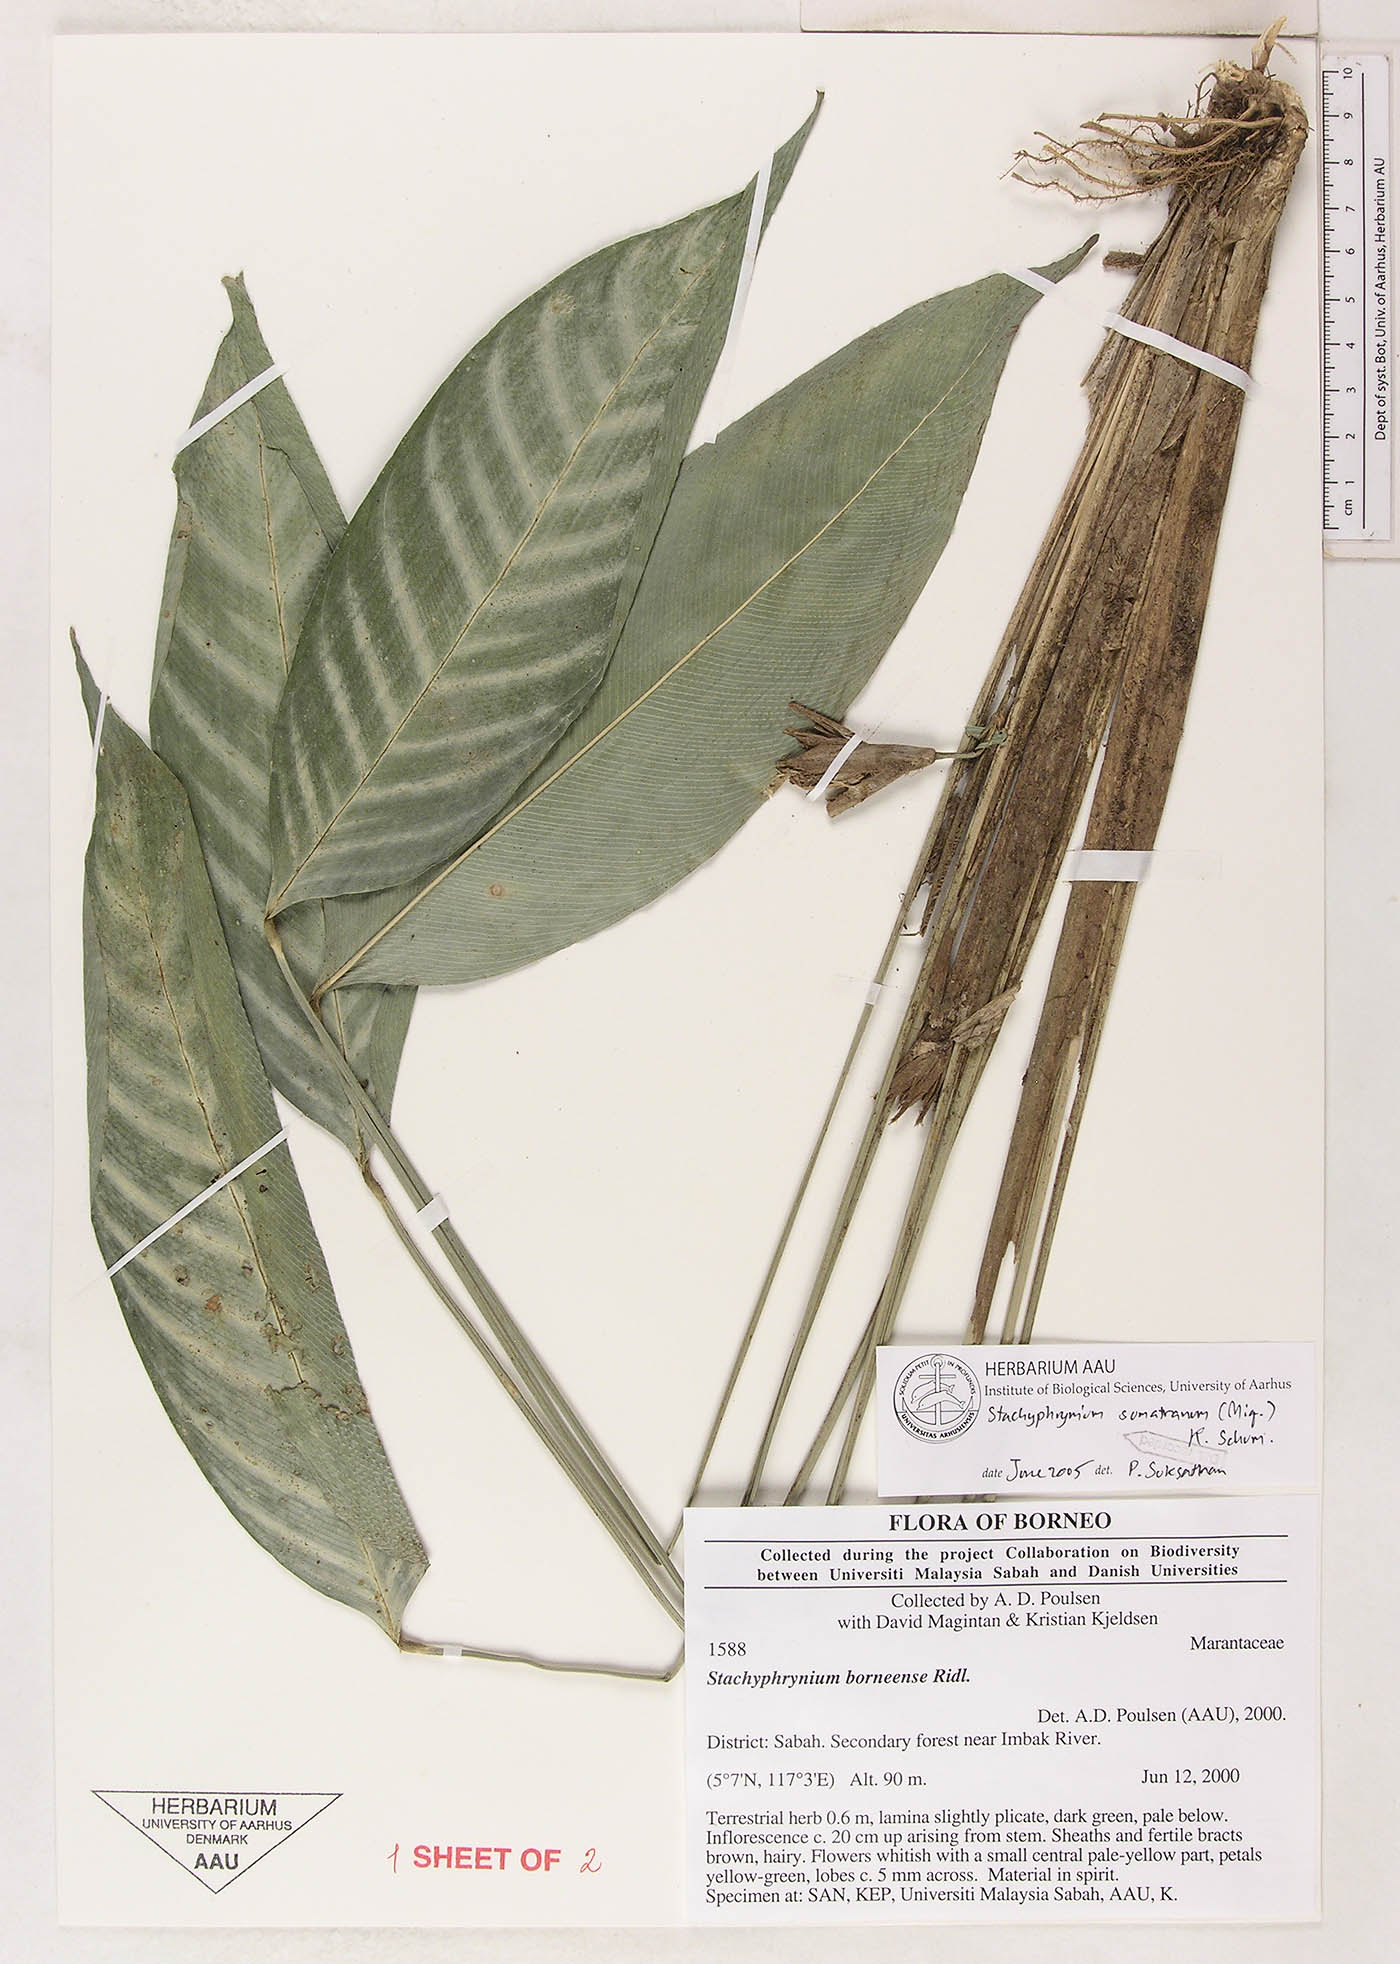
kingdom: Plantae
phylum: Tracheophyta
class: Liliopsida
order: Zingiberales
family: Marantaceae
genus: Stachyphrynium
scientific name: Stachyphrynium sumatranum
